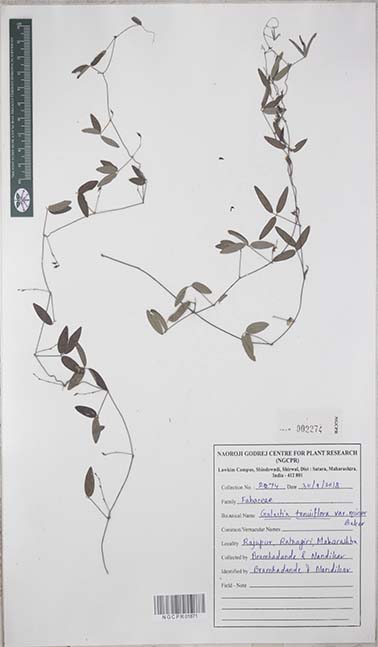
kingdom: Plantae
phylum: Tracheophyta
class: Magnoliopsida
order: Fabales
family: Fabaceae
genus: Galactia
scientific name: Galactia striata
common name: Florida hammock milkpea
